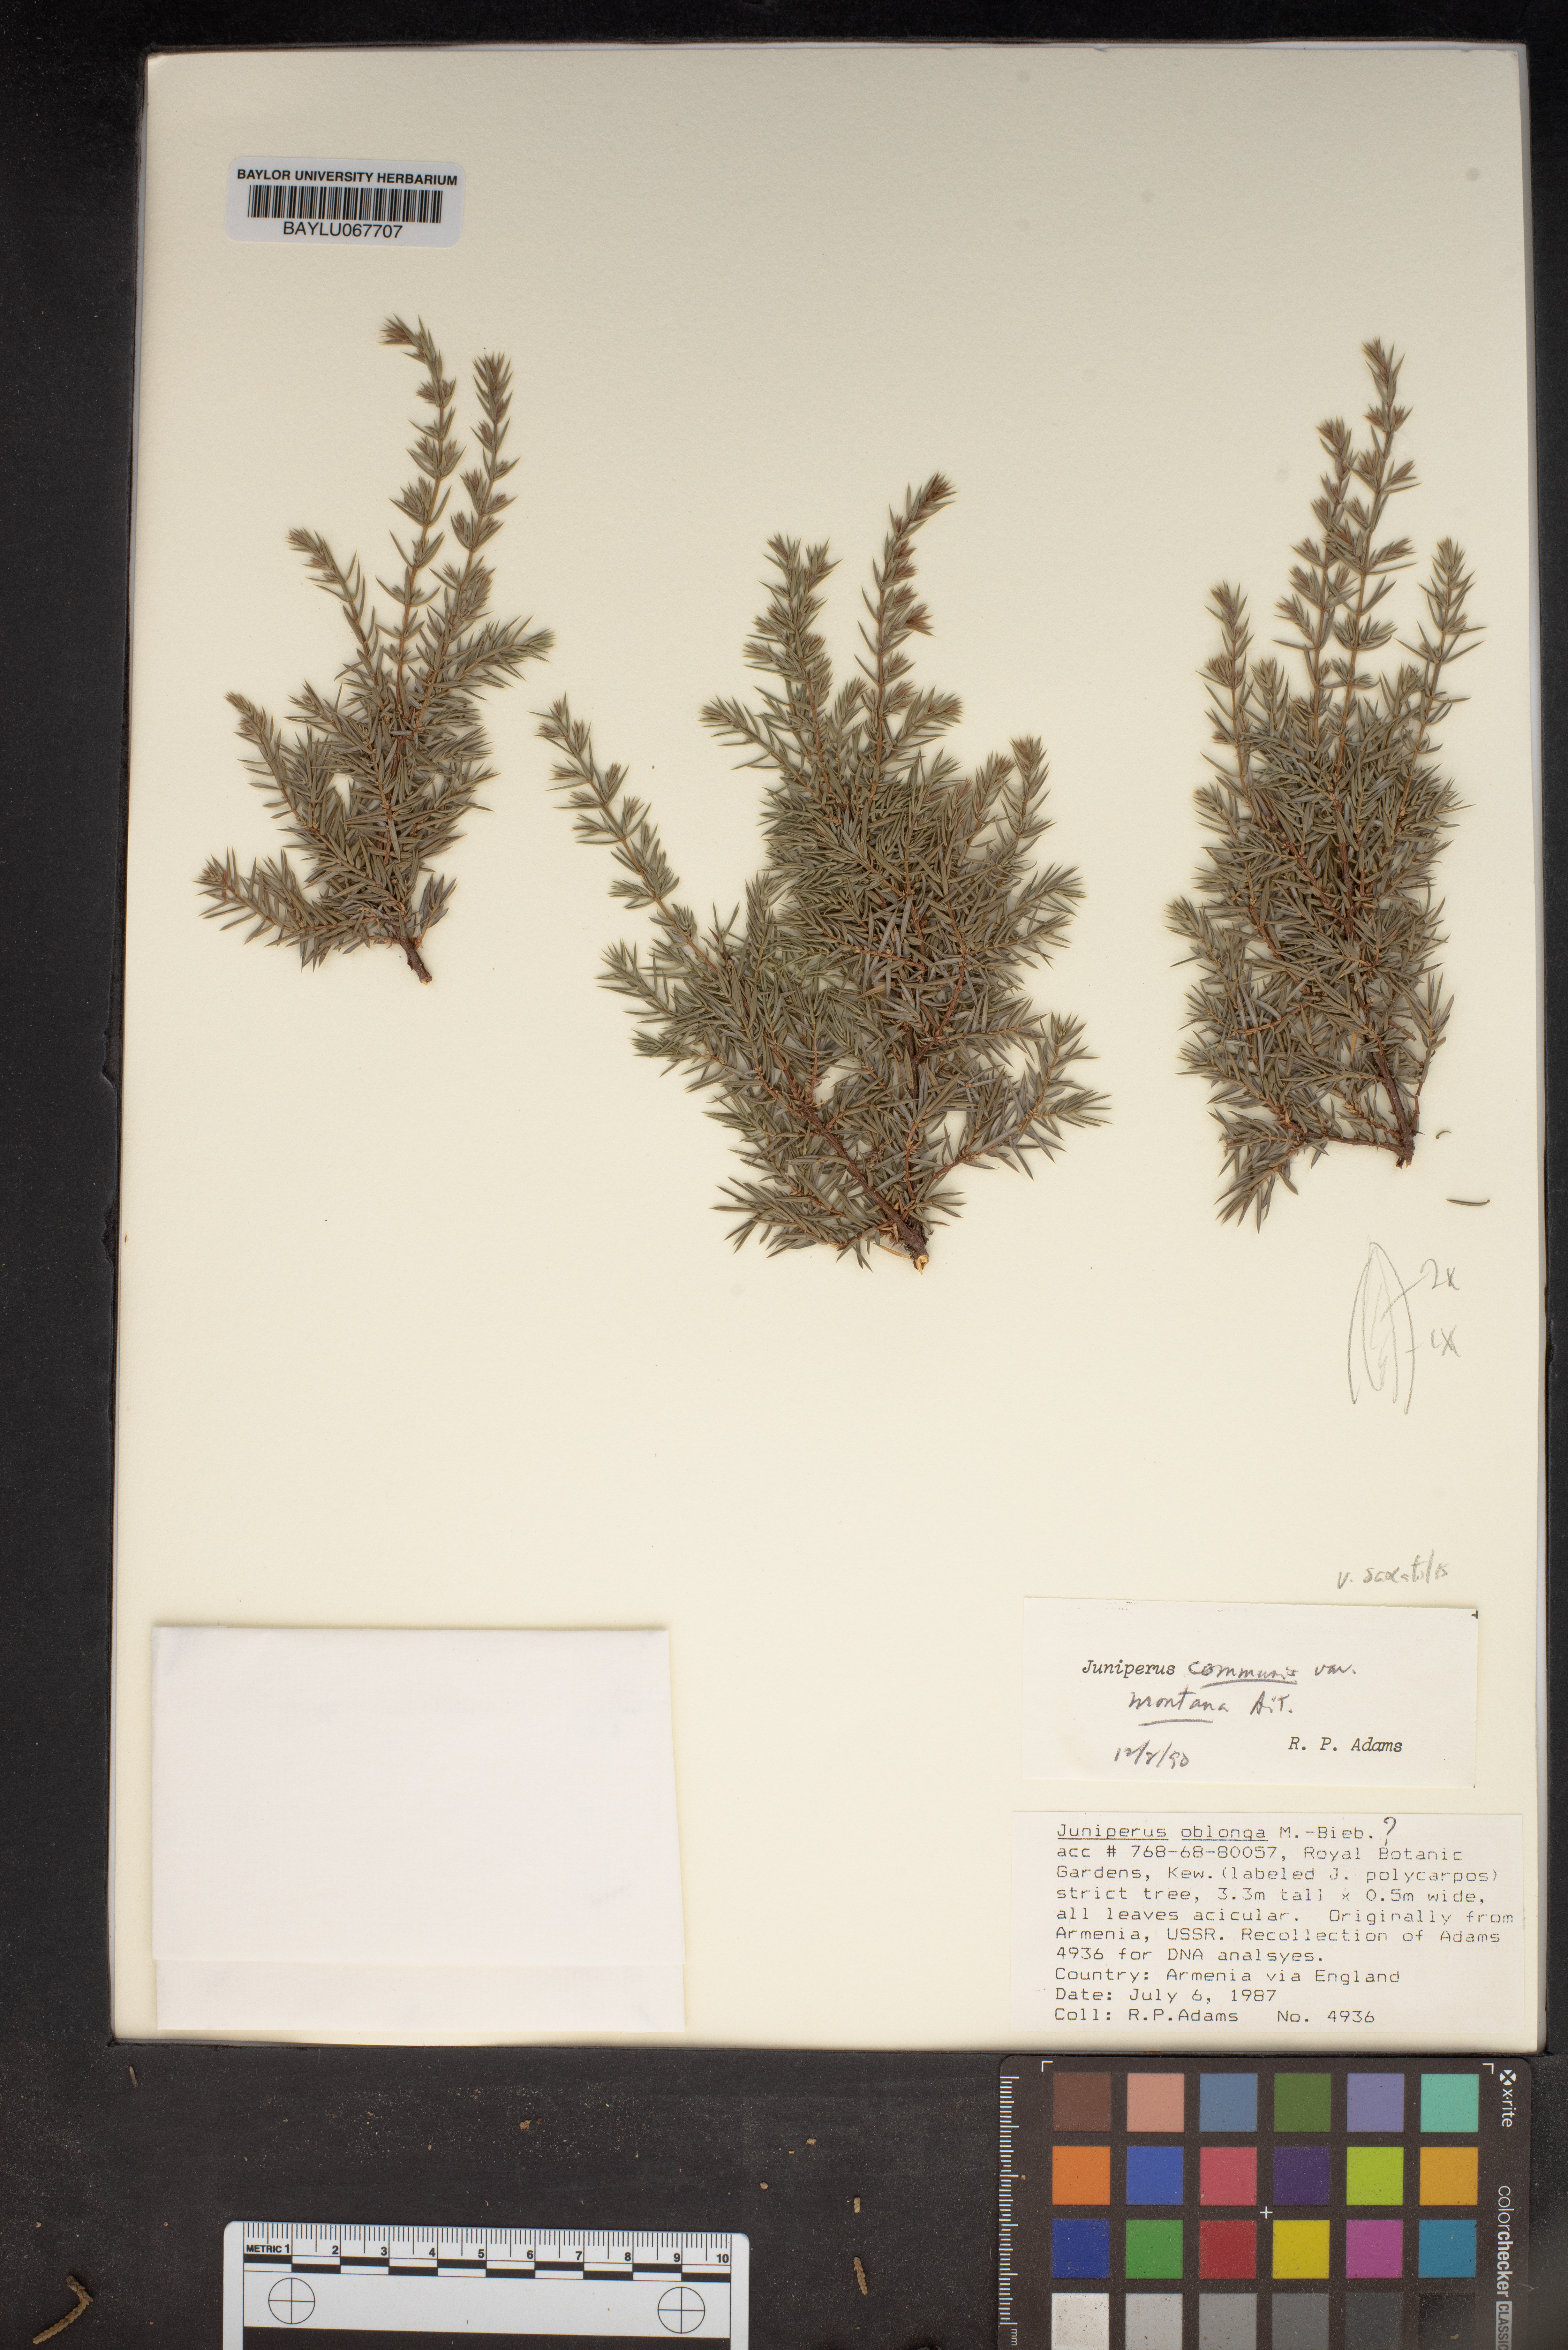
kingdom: Plantae
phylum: Tracheophyta
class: Pinopsida
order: Pinales
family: Cupressaceae
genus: Juniperus
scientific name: Juniperus communis
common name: Common juniper
